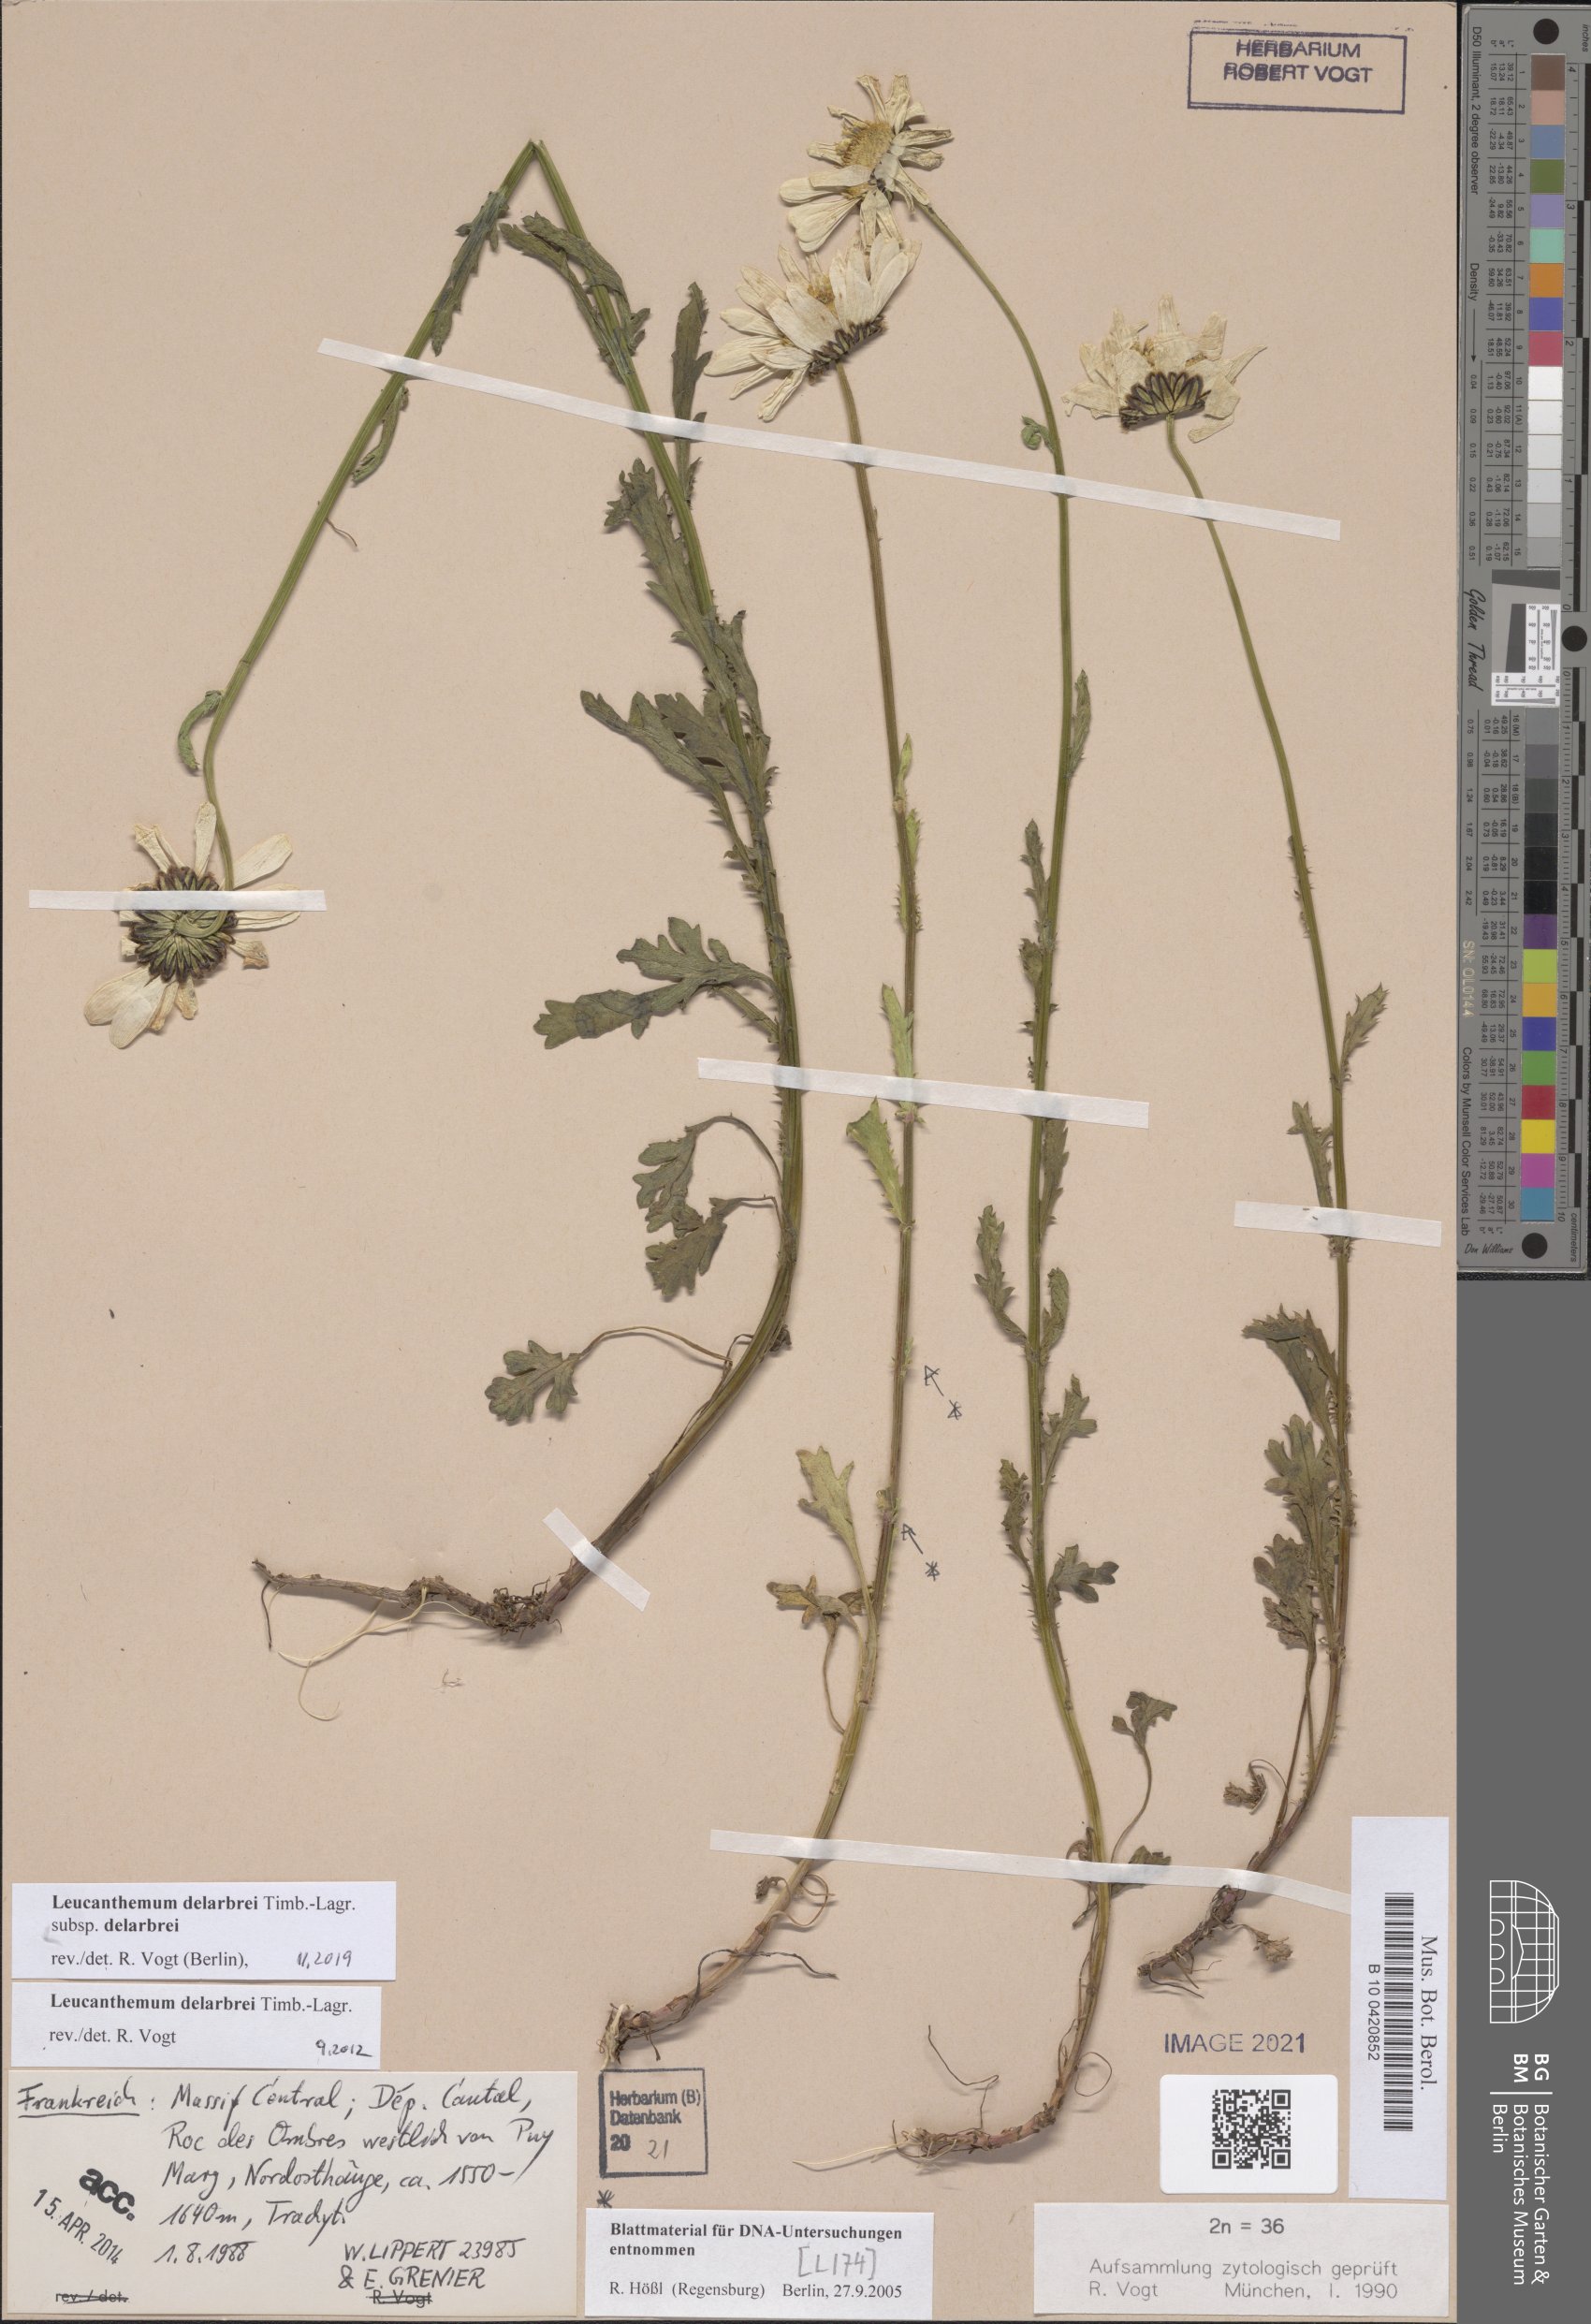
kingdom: Plantae
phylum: Tracheophyta
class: Magnoliopsida
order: Asterales
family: Asteraceae
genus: Leucanthemum
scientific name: Leucanthemum delarbrei
